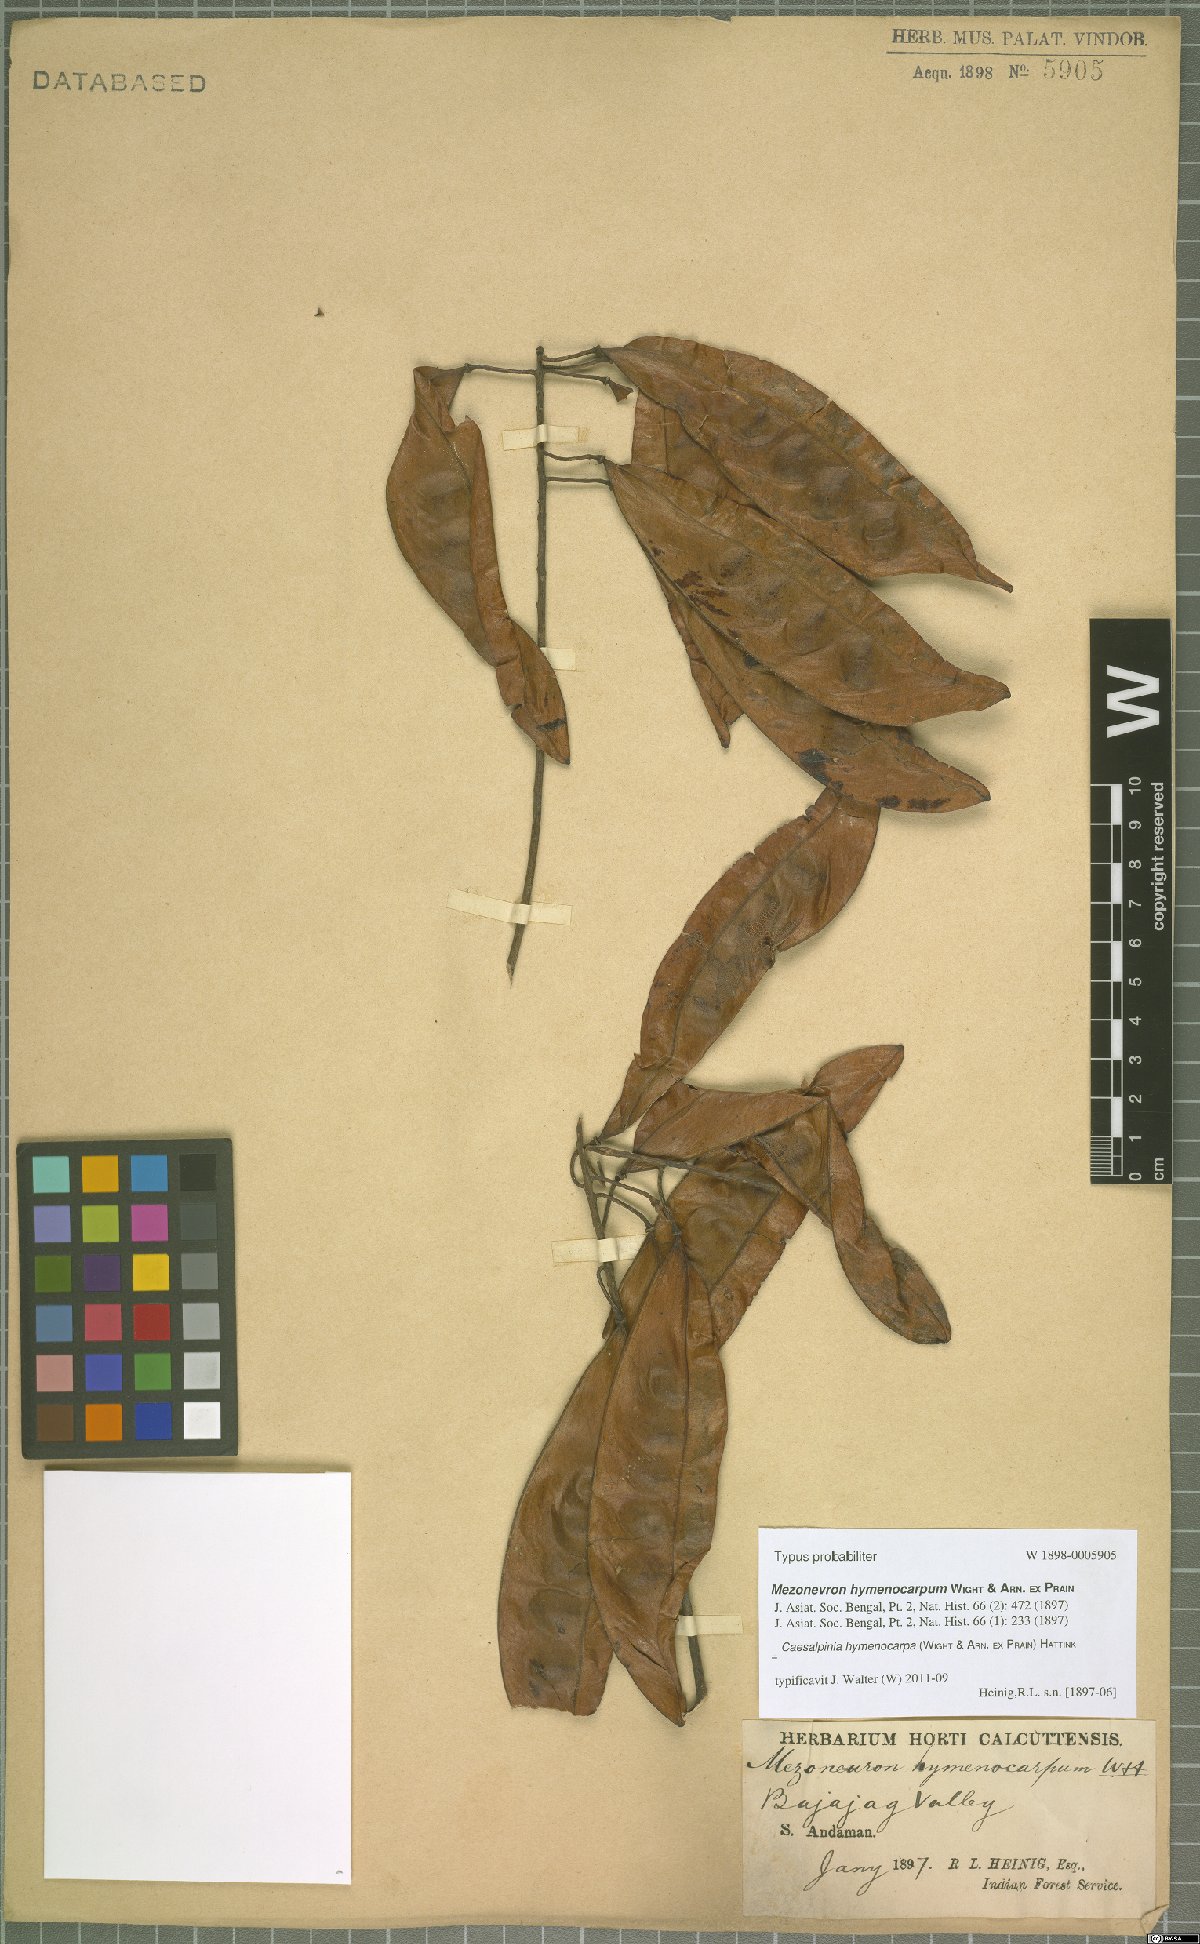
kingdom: Plantae
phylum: Tracheophyta
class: Magnoliopsida
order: Fabales
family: Fabaceae
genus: Mezoneuron
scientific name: Mezoneuron hymenocarpum
